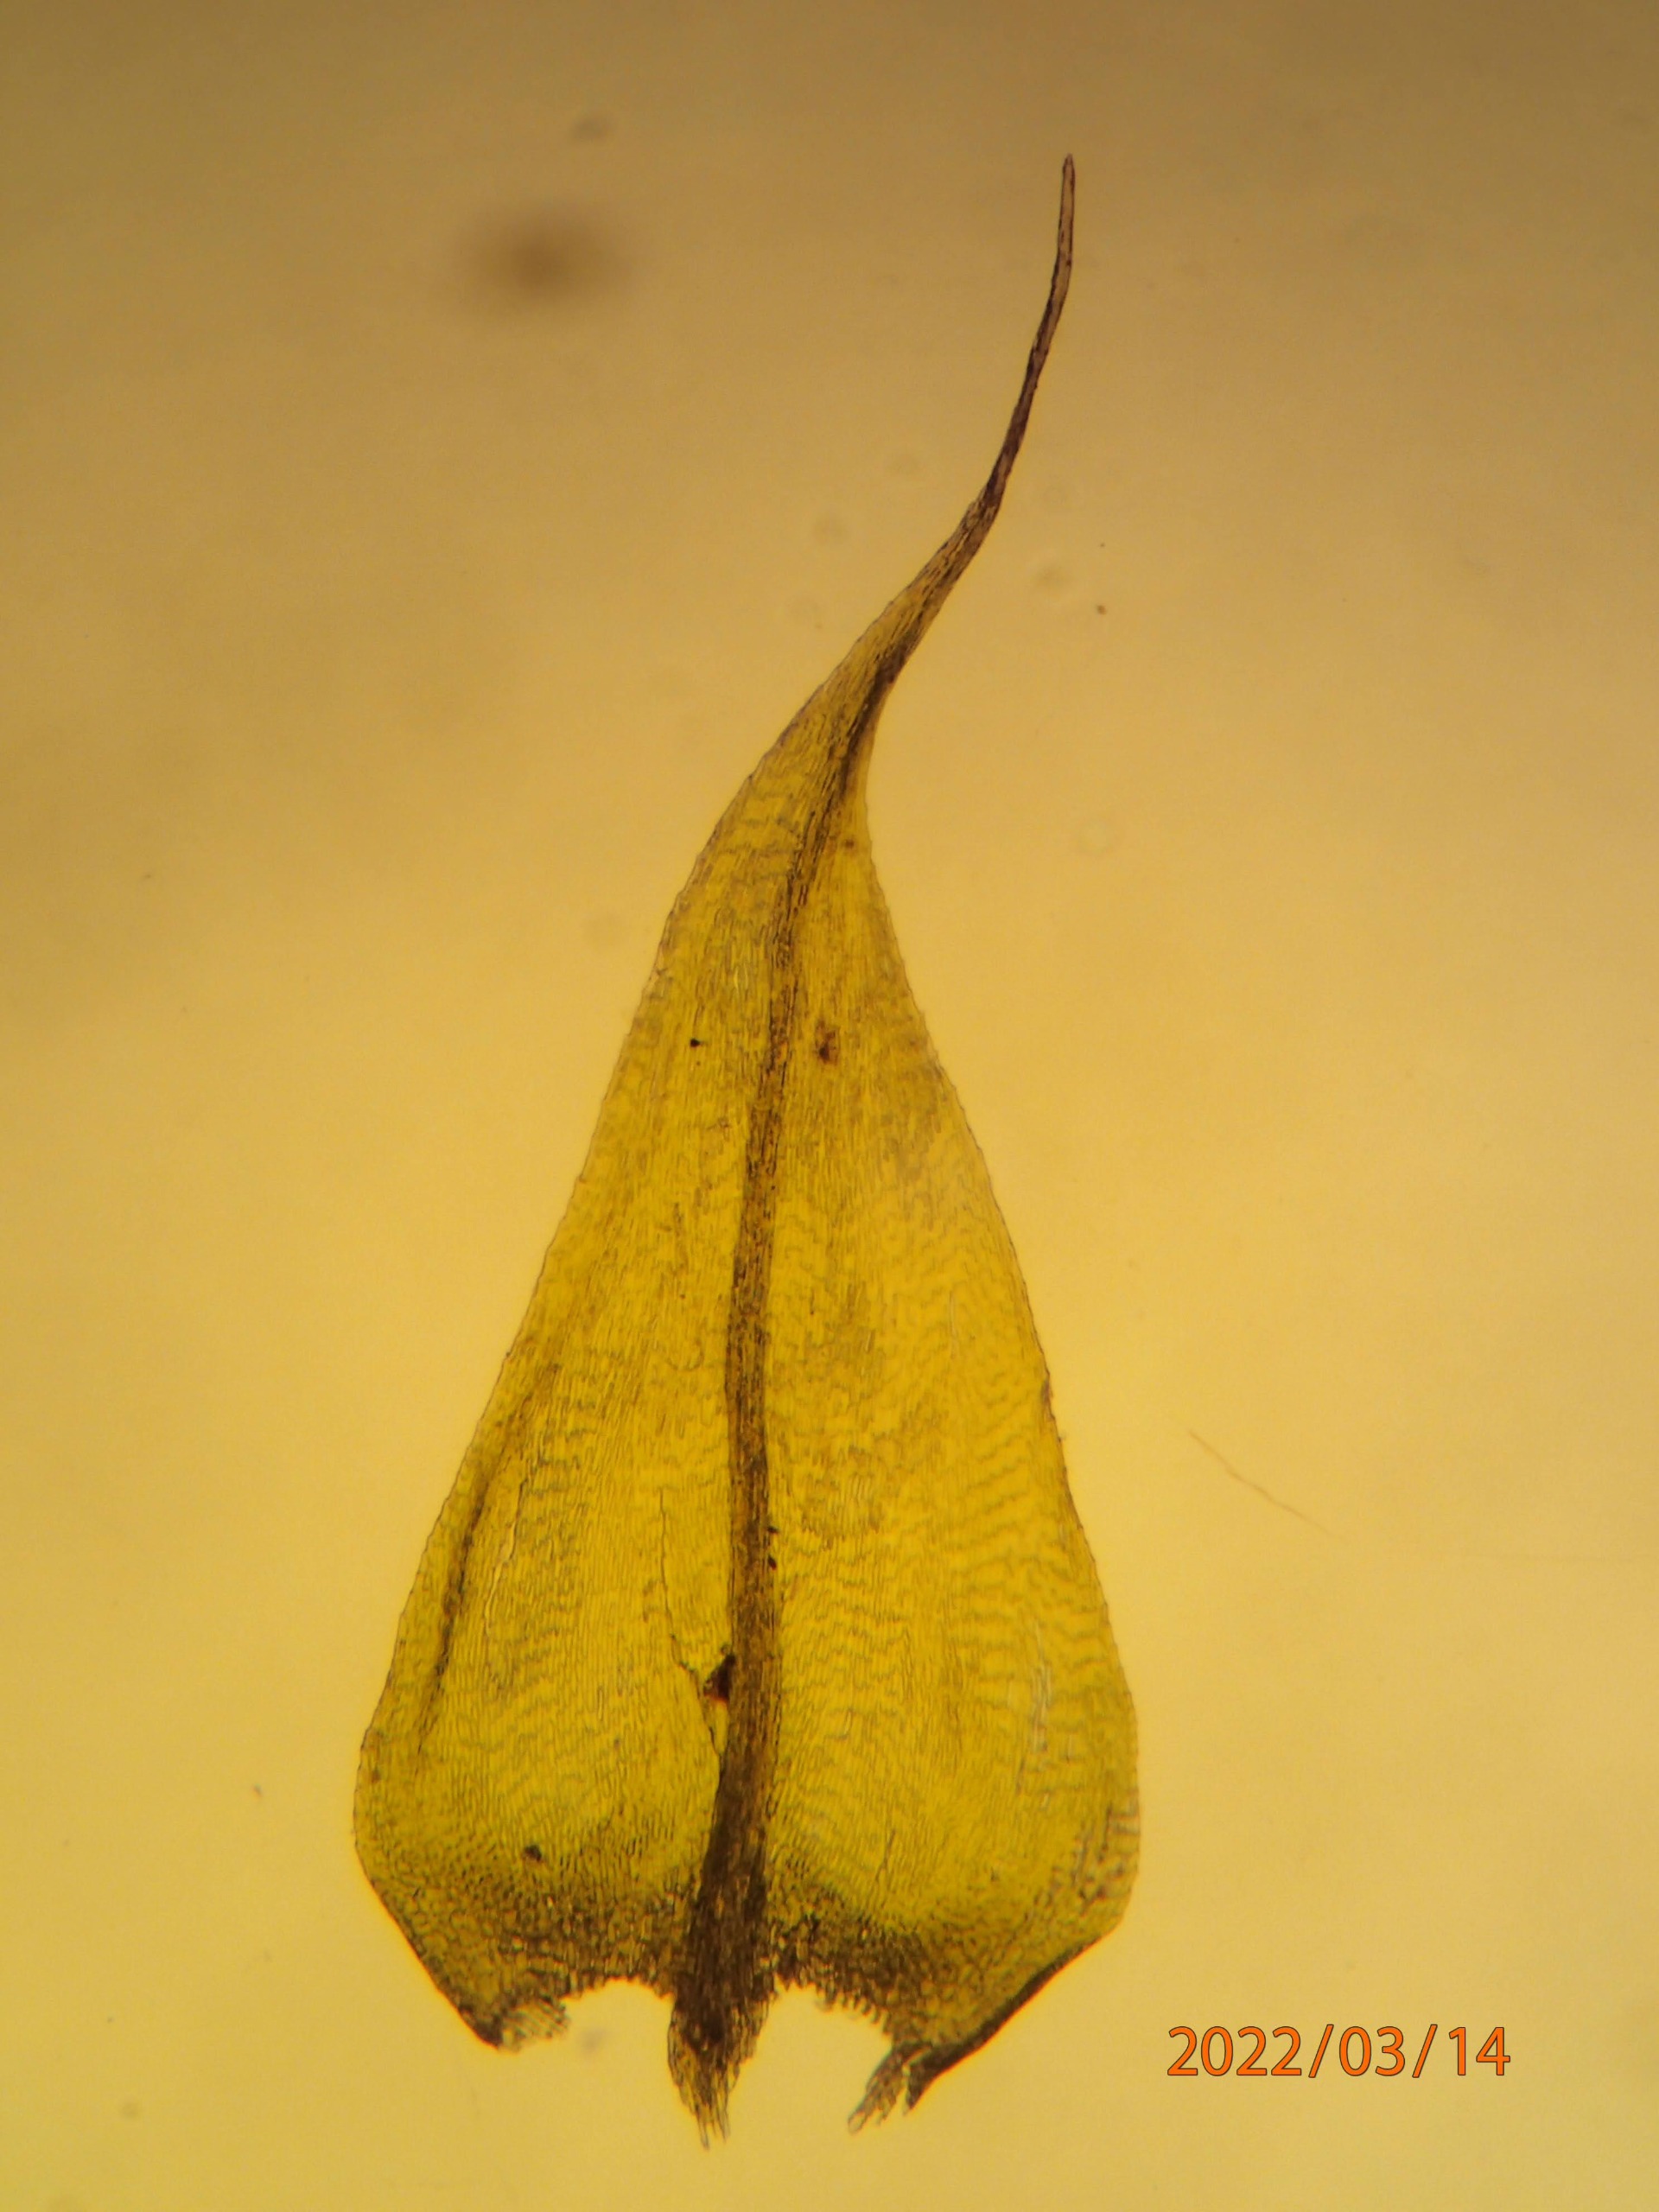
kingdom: Plantae
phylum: Bryophyta
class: Bryopsida
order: Hypnales
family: Brachytheciaceae
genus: Sciuro-hypnum
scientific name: Sciuro-hypnum populeum
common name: Park-kortkapsel
